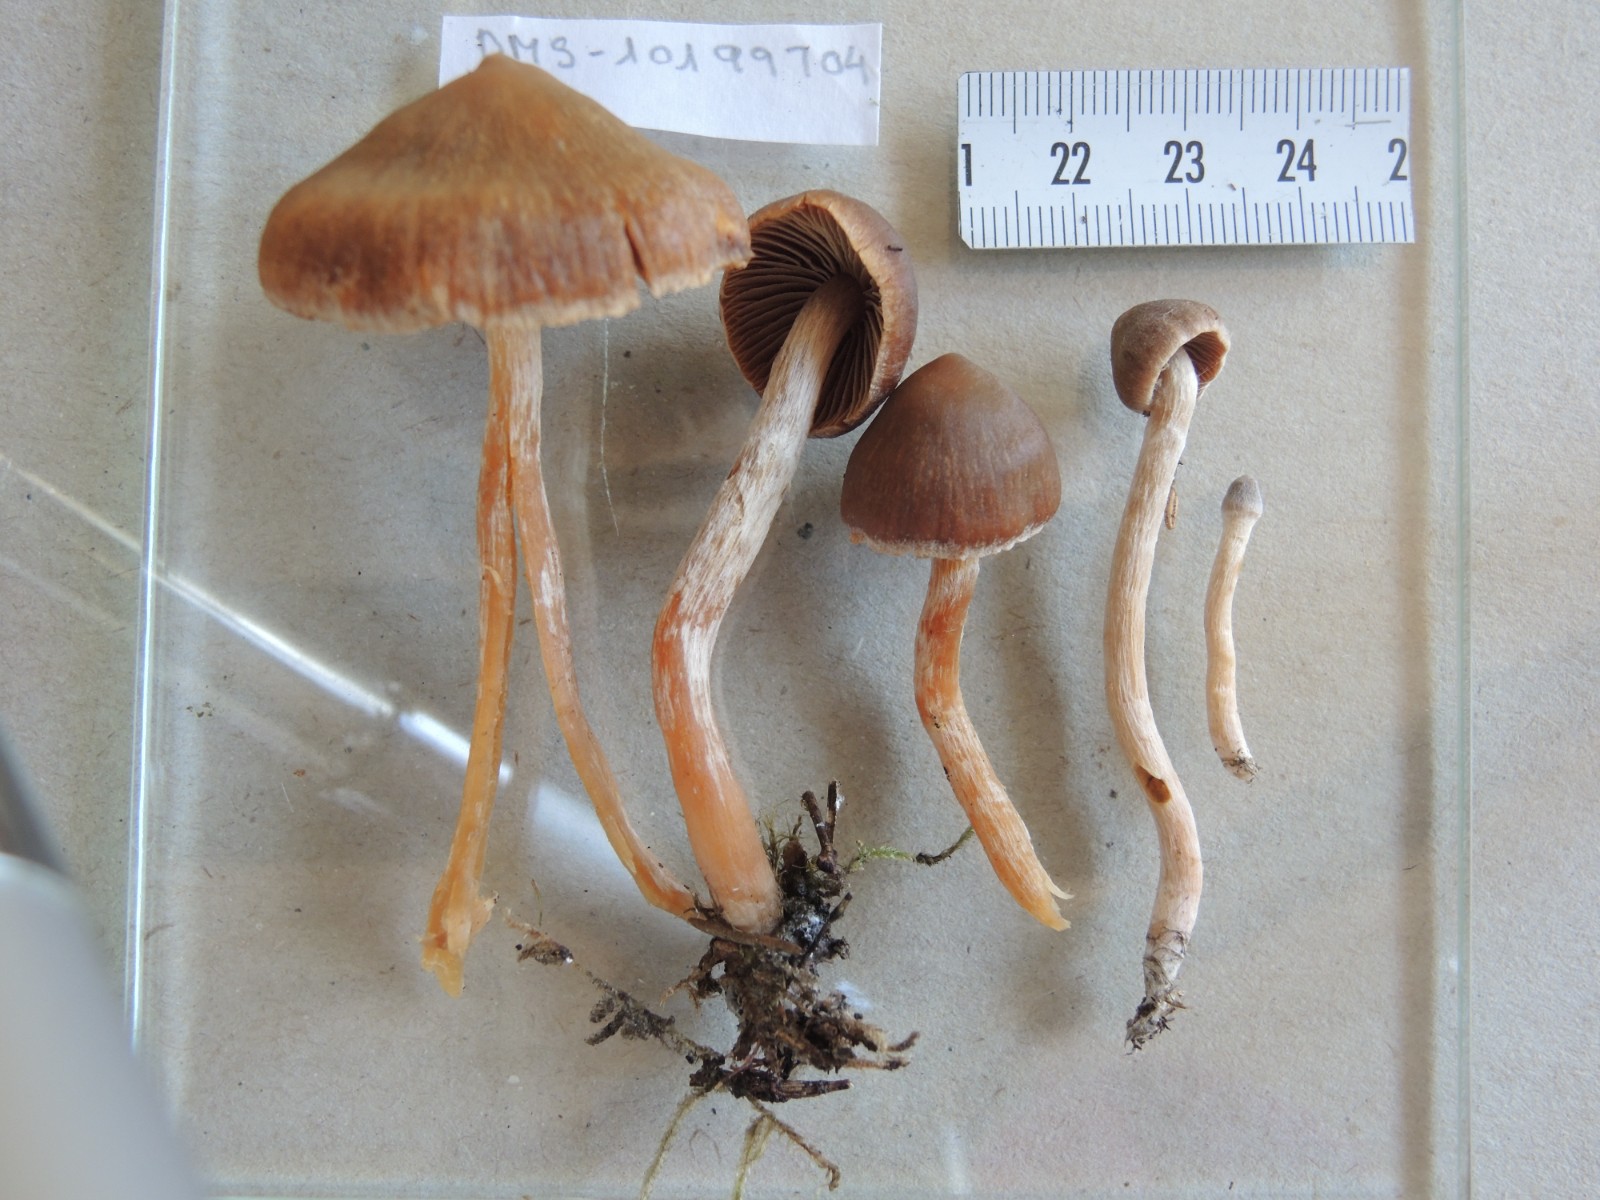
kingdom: Fungi
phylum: Basidiomycota
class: Agaricomycetes
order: Agaricales
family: Cortinariaceae
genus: Cortinarius
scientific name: Cortinarius
